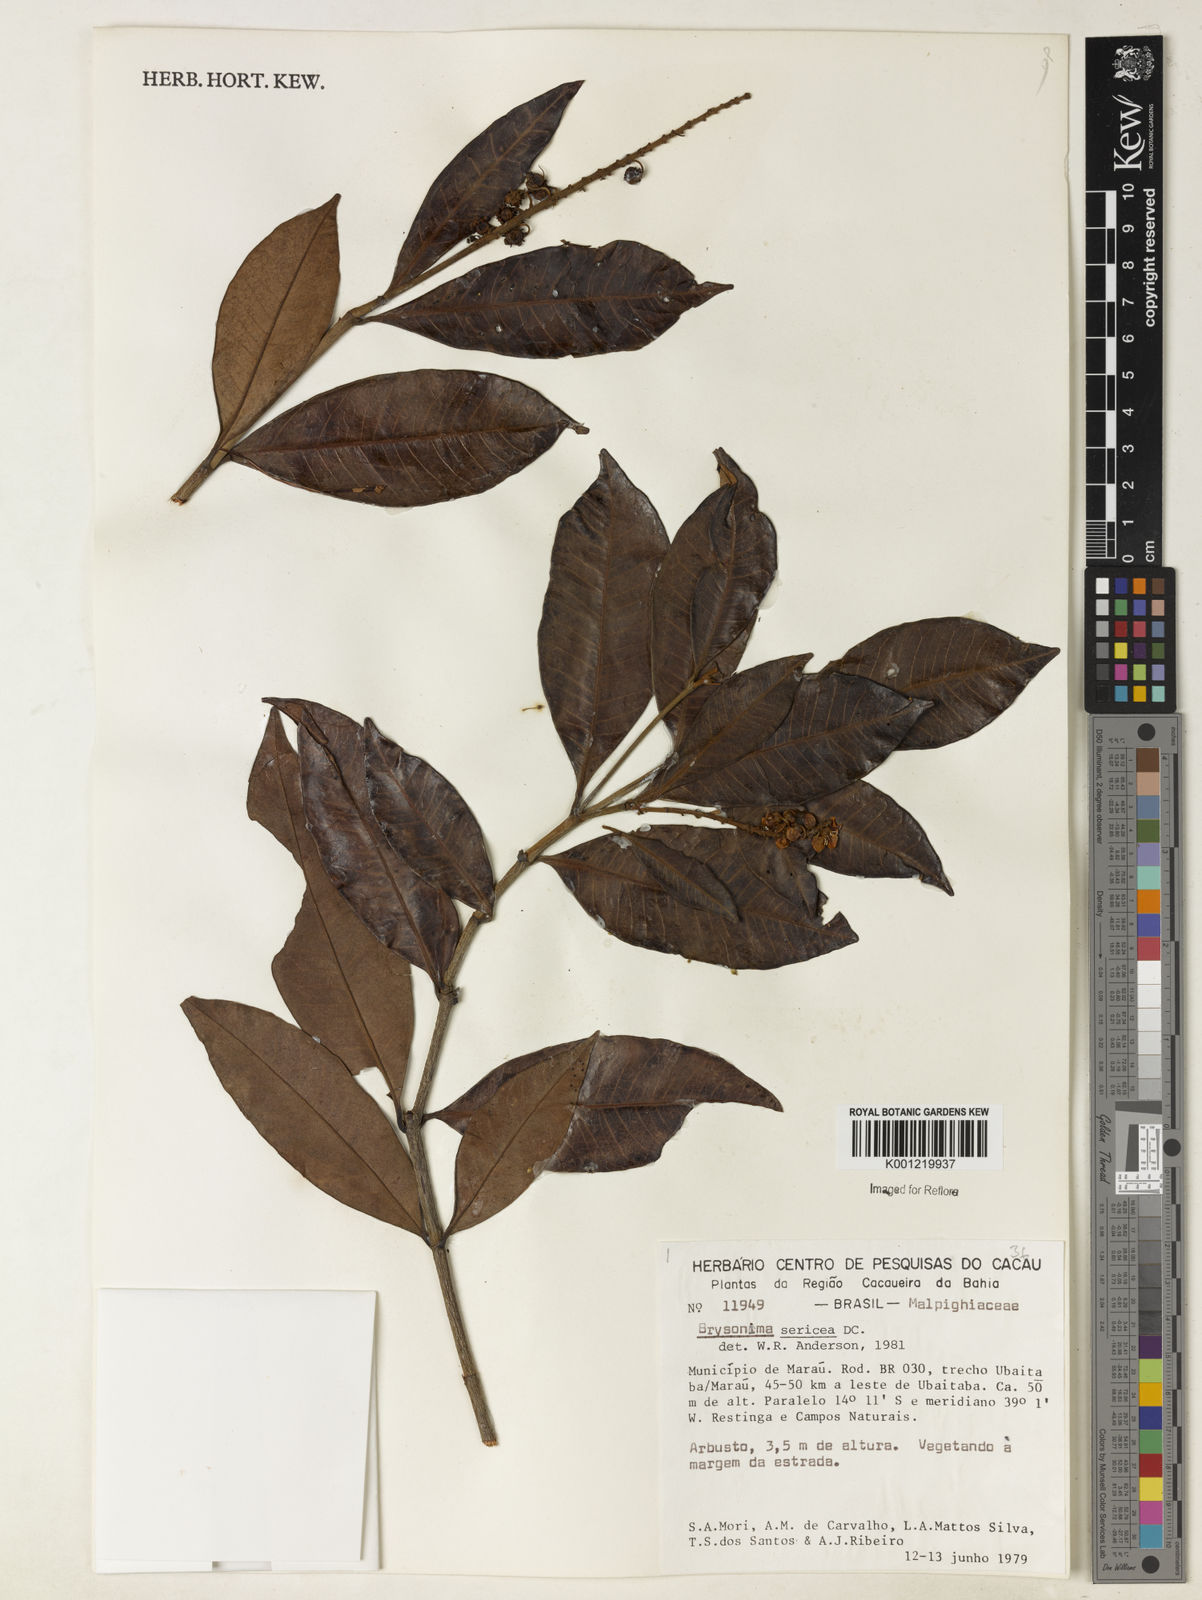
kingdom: Plantae
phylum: Tracheophyta
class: Magnoliopsida
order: Malpighiales
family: Malpighiaceae
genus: Byrsonima
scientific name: Byrsonima sericea
